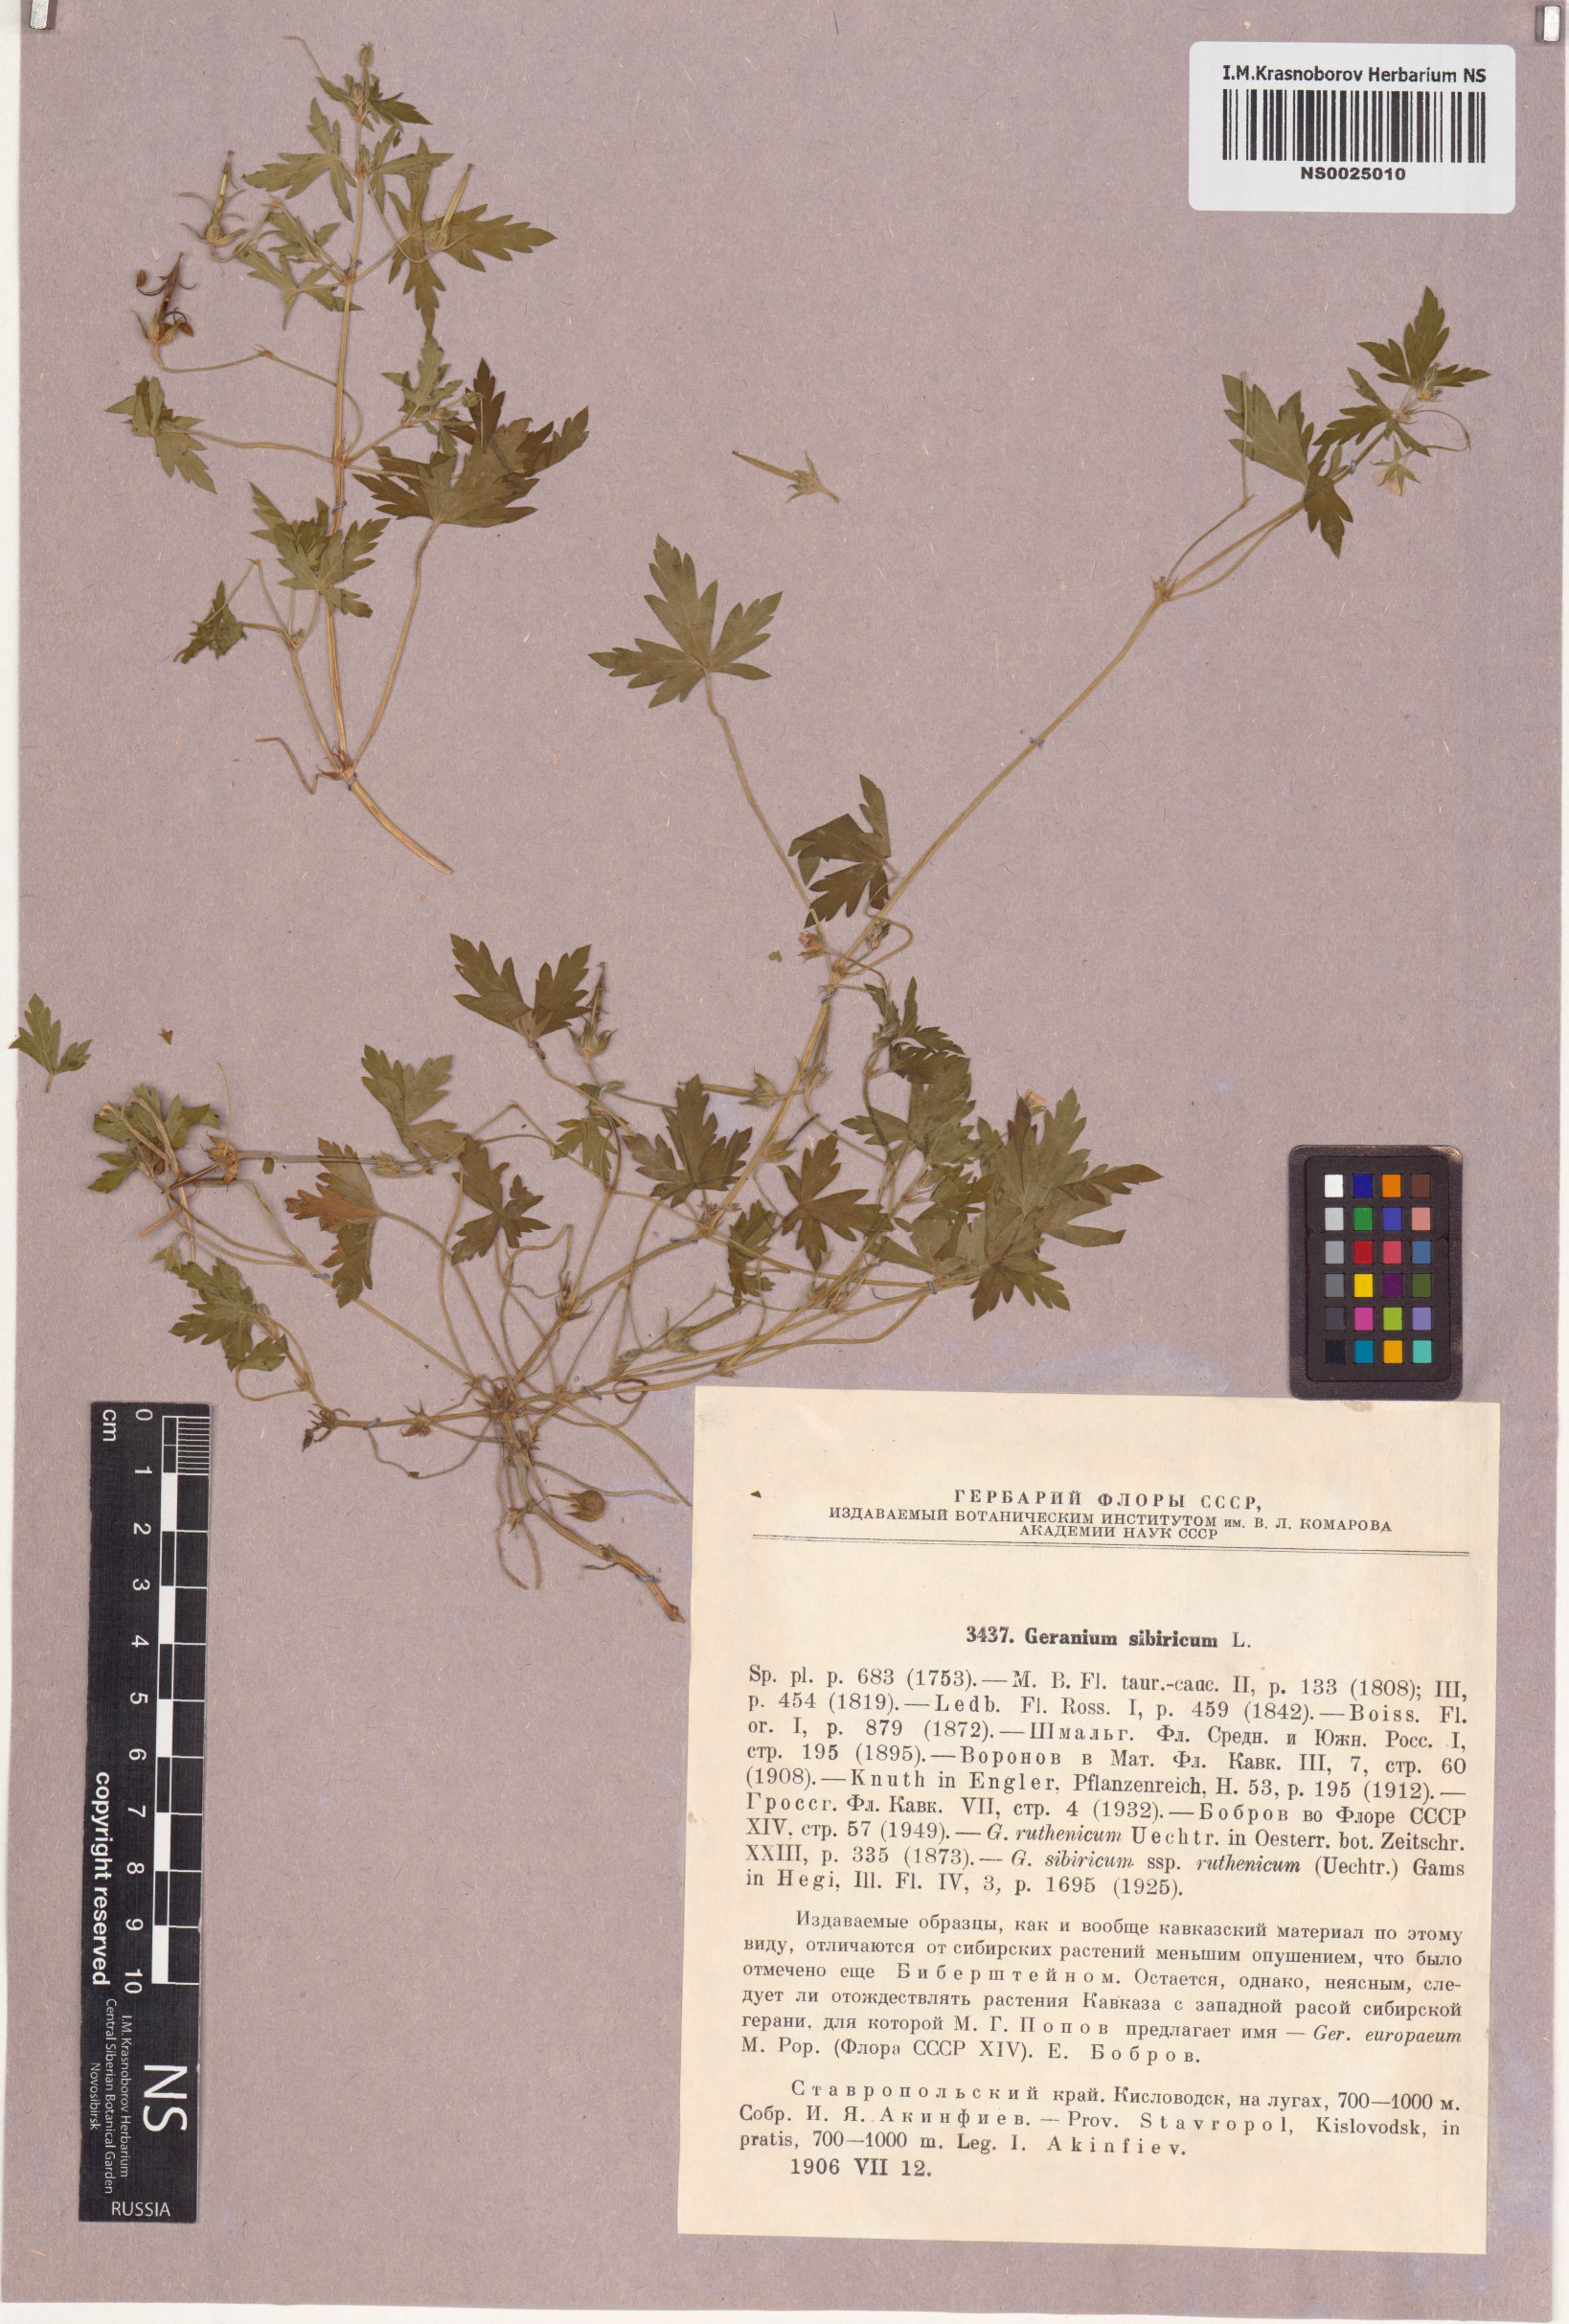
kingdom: Plantae
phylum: Tracheophyta
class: Magnoliopsida
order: Geraniales
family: Geraniaceae
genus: Geranium
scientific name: Geranium sibiricum
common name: Siberian crane's-bill
